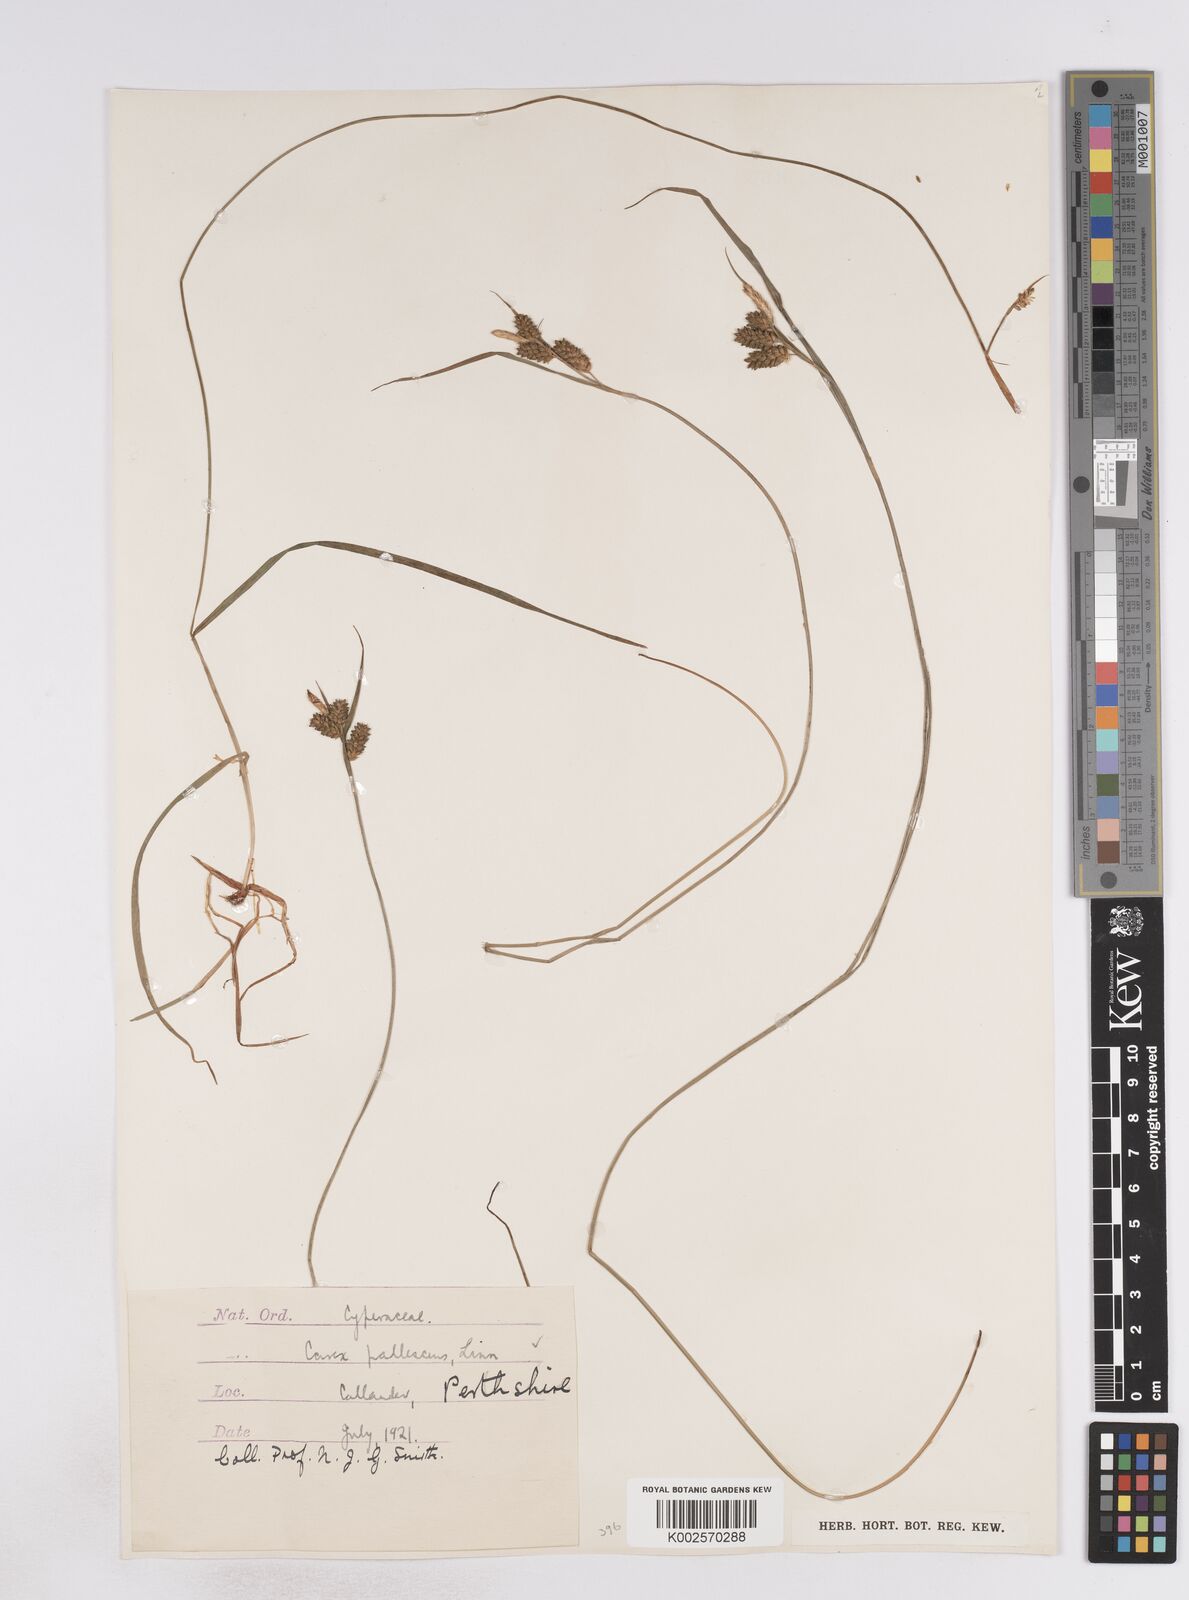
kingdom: Plantae
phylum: Tracheophyta
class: Liliopsida
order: Poales
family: Cyperaceae
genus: Carex
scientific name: Carex pallescens
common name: Pale sedge
